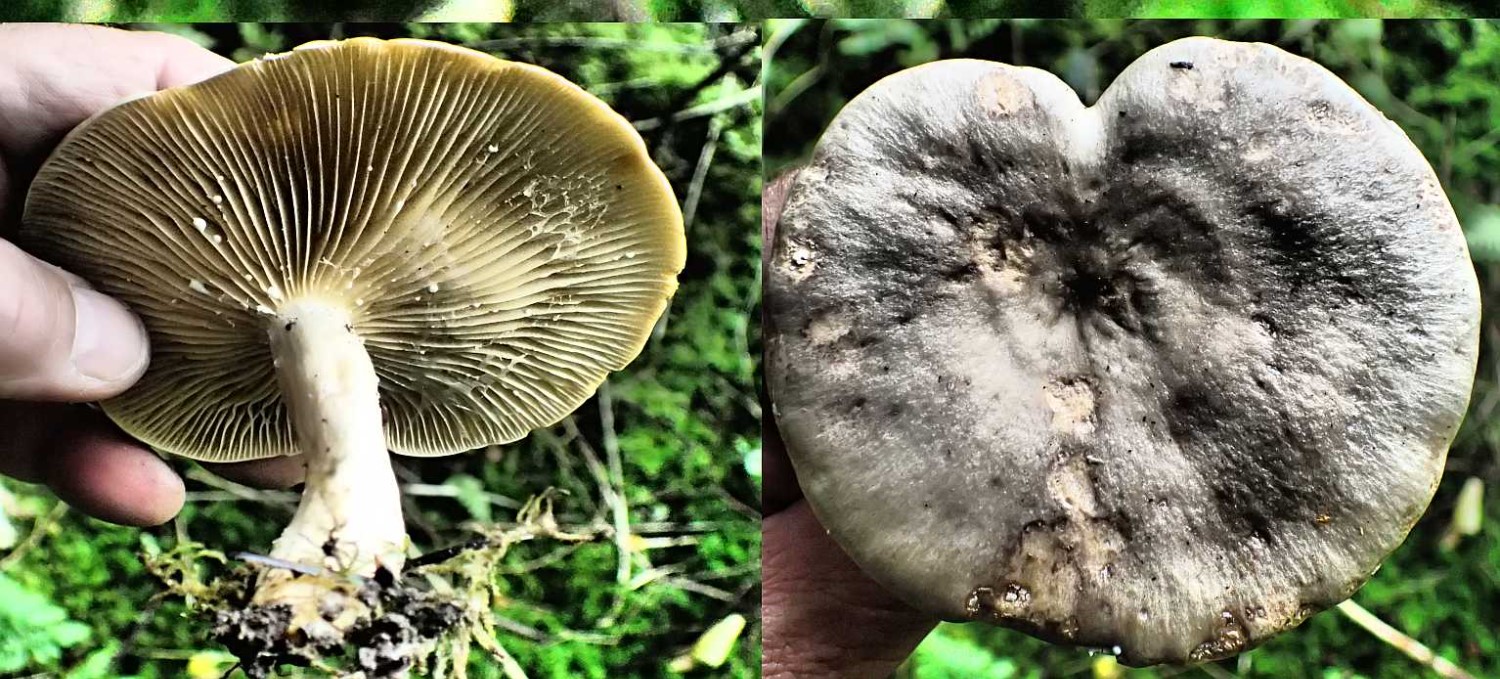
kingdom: Fungi
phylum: Basidiomycota
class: Agaricomycetes
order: Russulales
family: Russulaceae
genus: Lactarius
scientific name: Lactarius pyrogalus
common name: hassel-mælkehat
